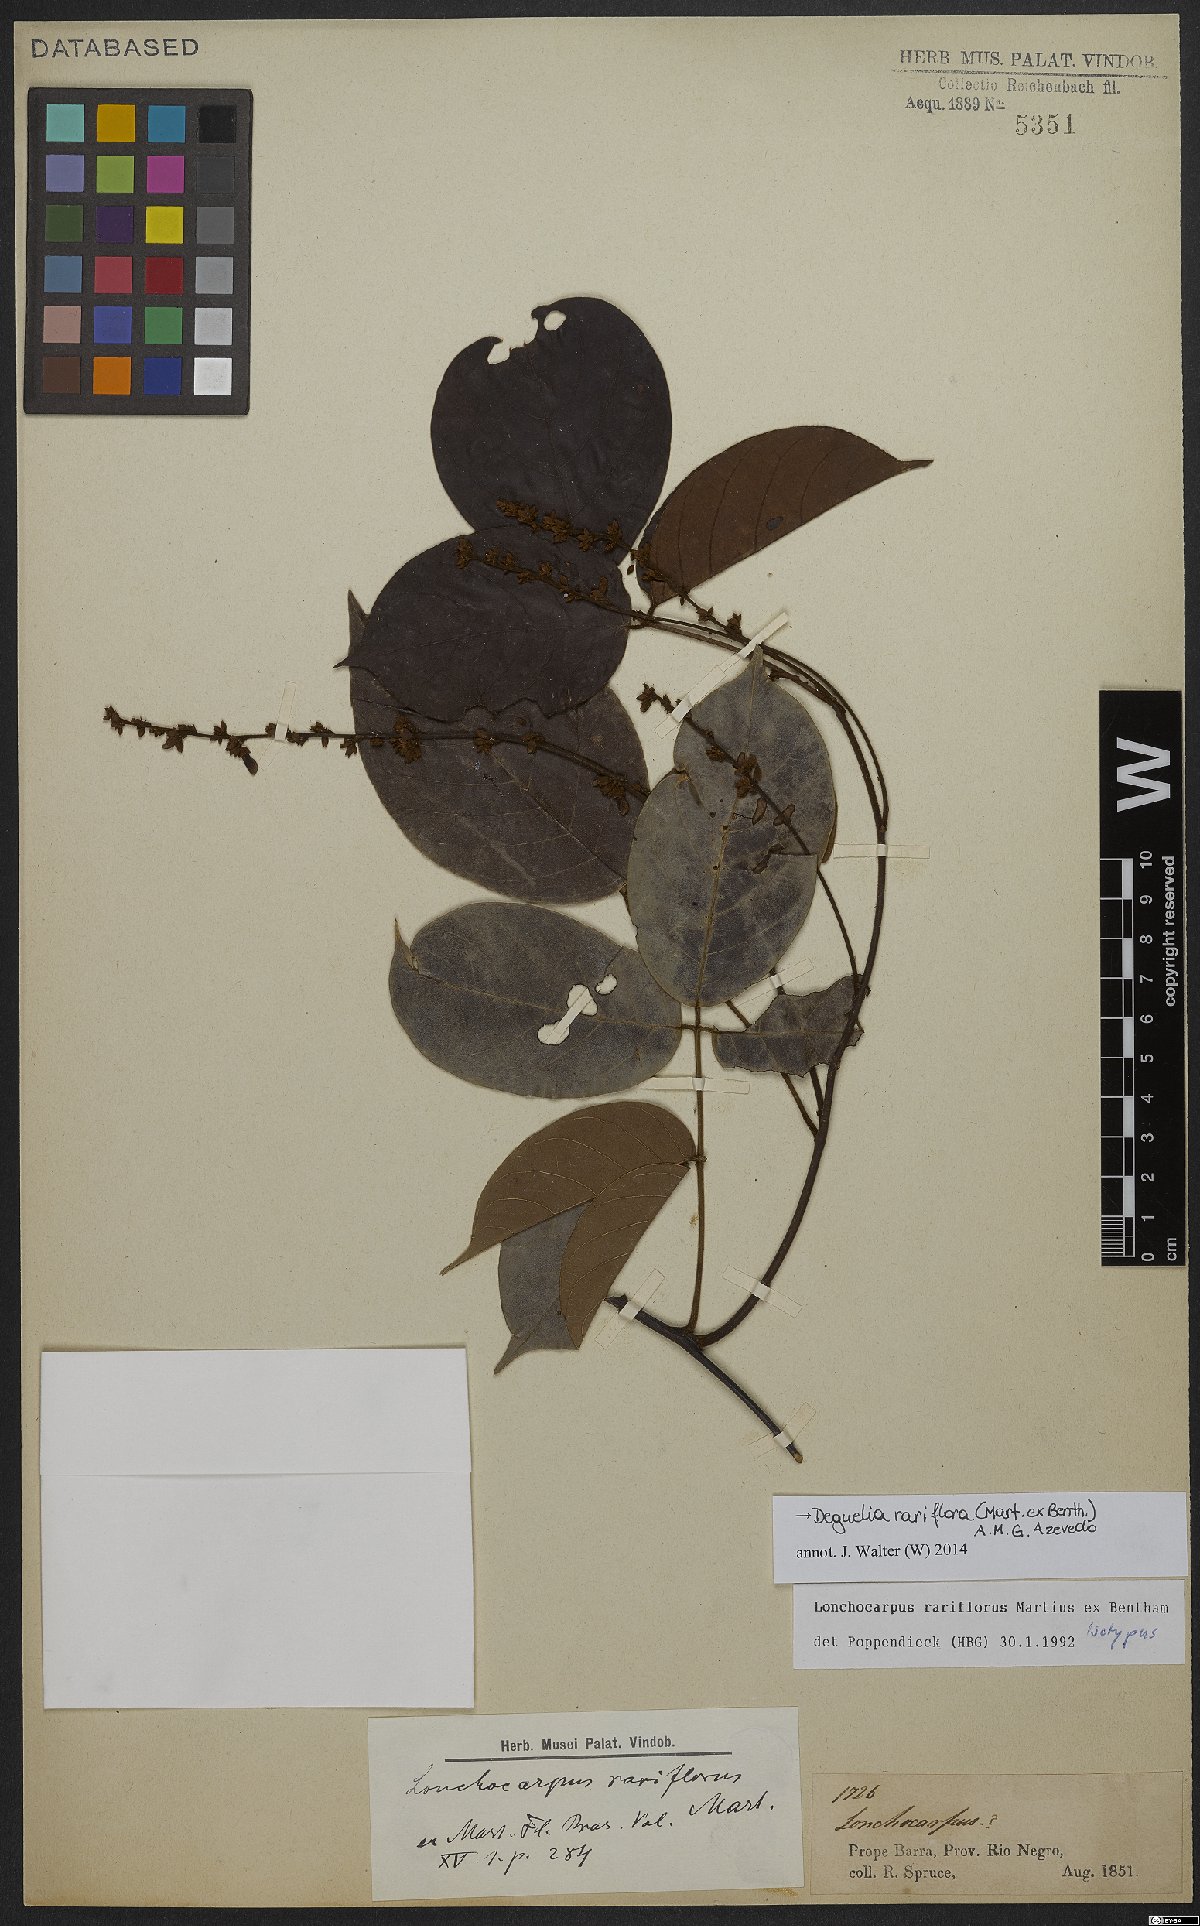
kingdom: Plantae
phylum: Tracheophyta
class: Magnoliopsida
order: Fabales
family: Fabaceae
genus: Deguelia
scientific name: Deguelia rariflora
